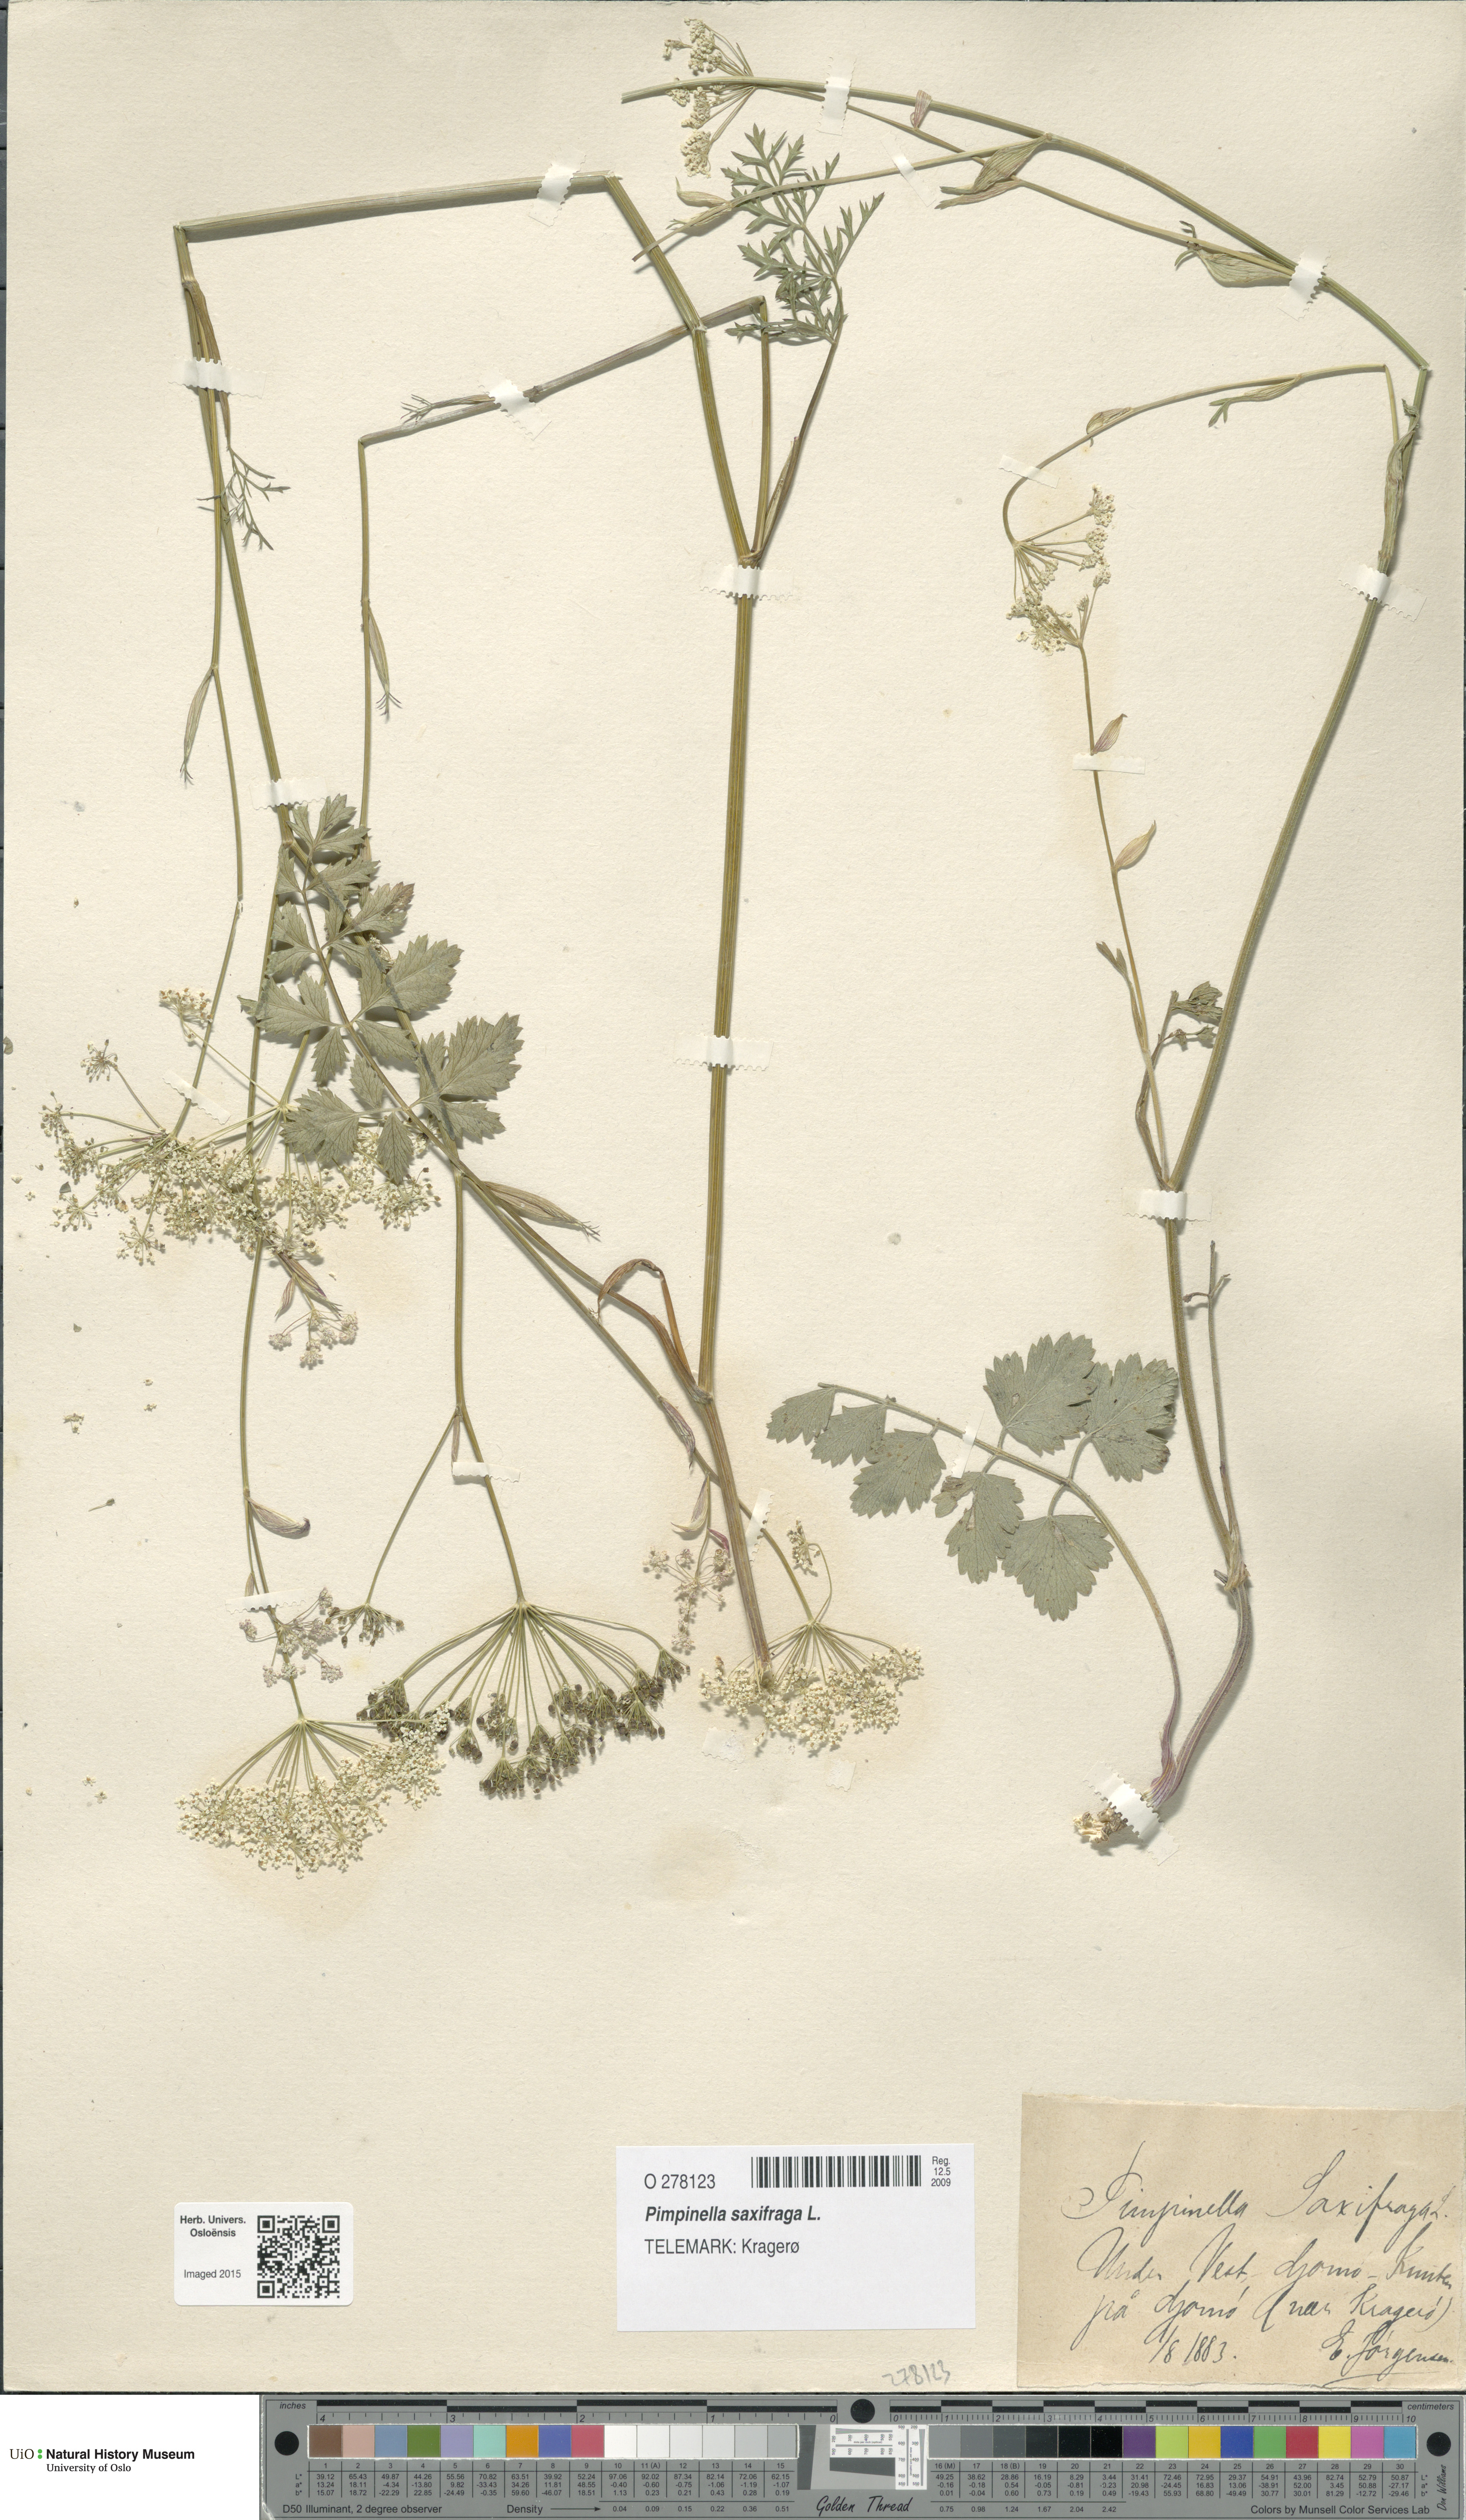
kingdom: Plantae
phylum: Tracheophyta
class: Magnoliopsida
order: Apiales
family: Apiaceae
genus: Pimpinella
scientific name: Pimpinella saxifraga
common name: Burnet-saxifrage
